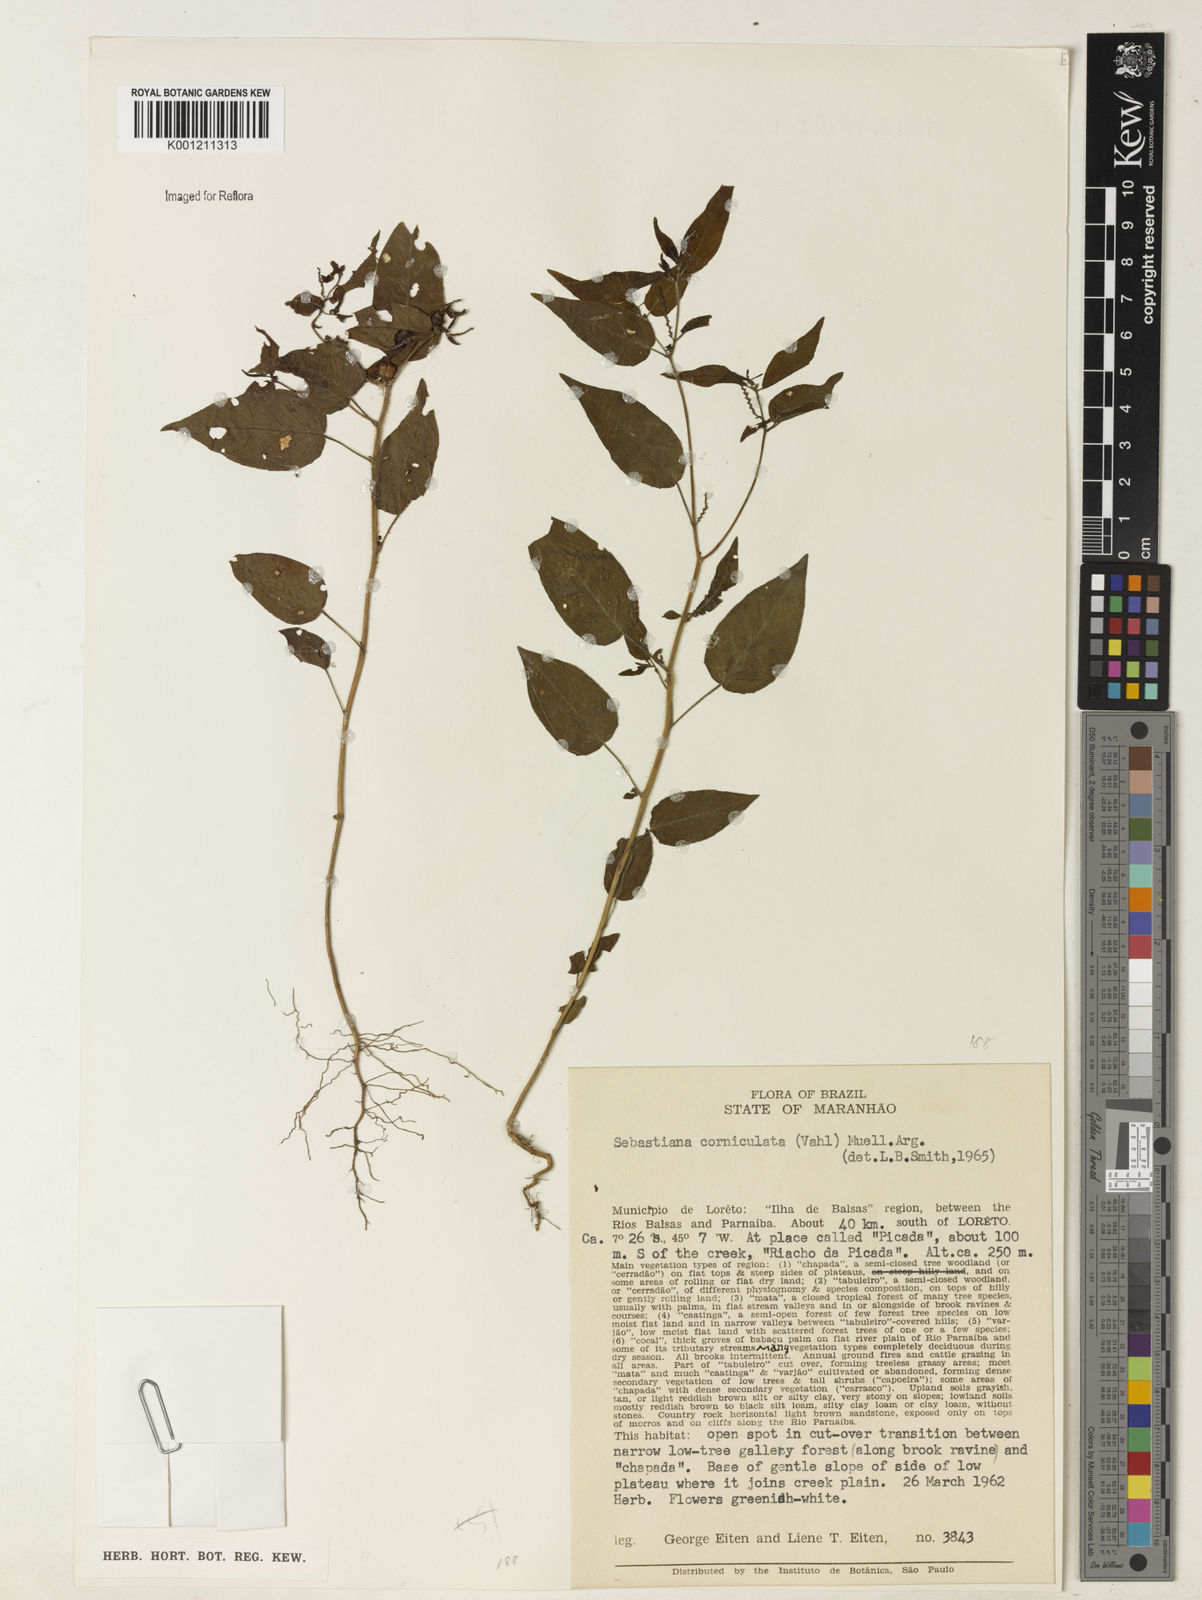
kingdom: Plantae
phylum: Tracheophyta
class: Magnoliopsida
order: Malpighiales
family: Euphorbiaceae
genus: Microstachys
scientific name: Microstachys corniculata
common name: Hato tejas
